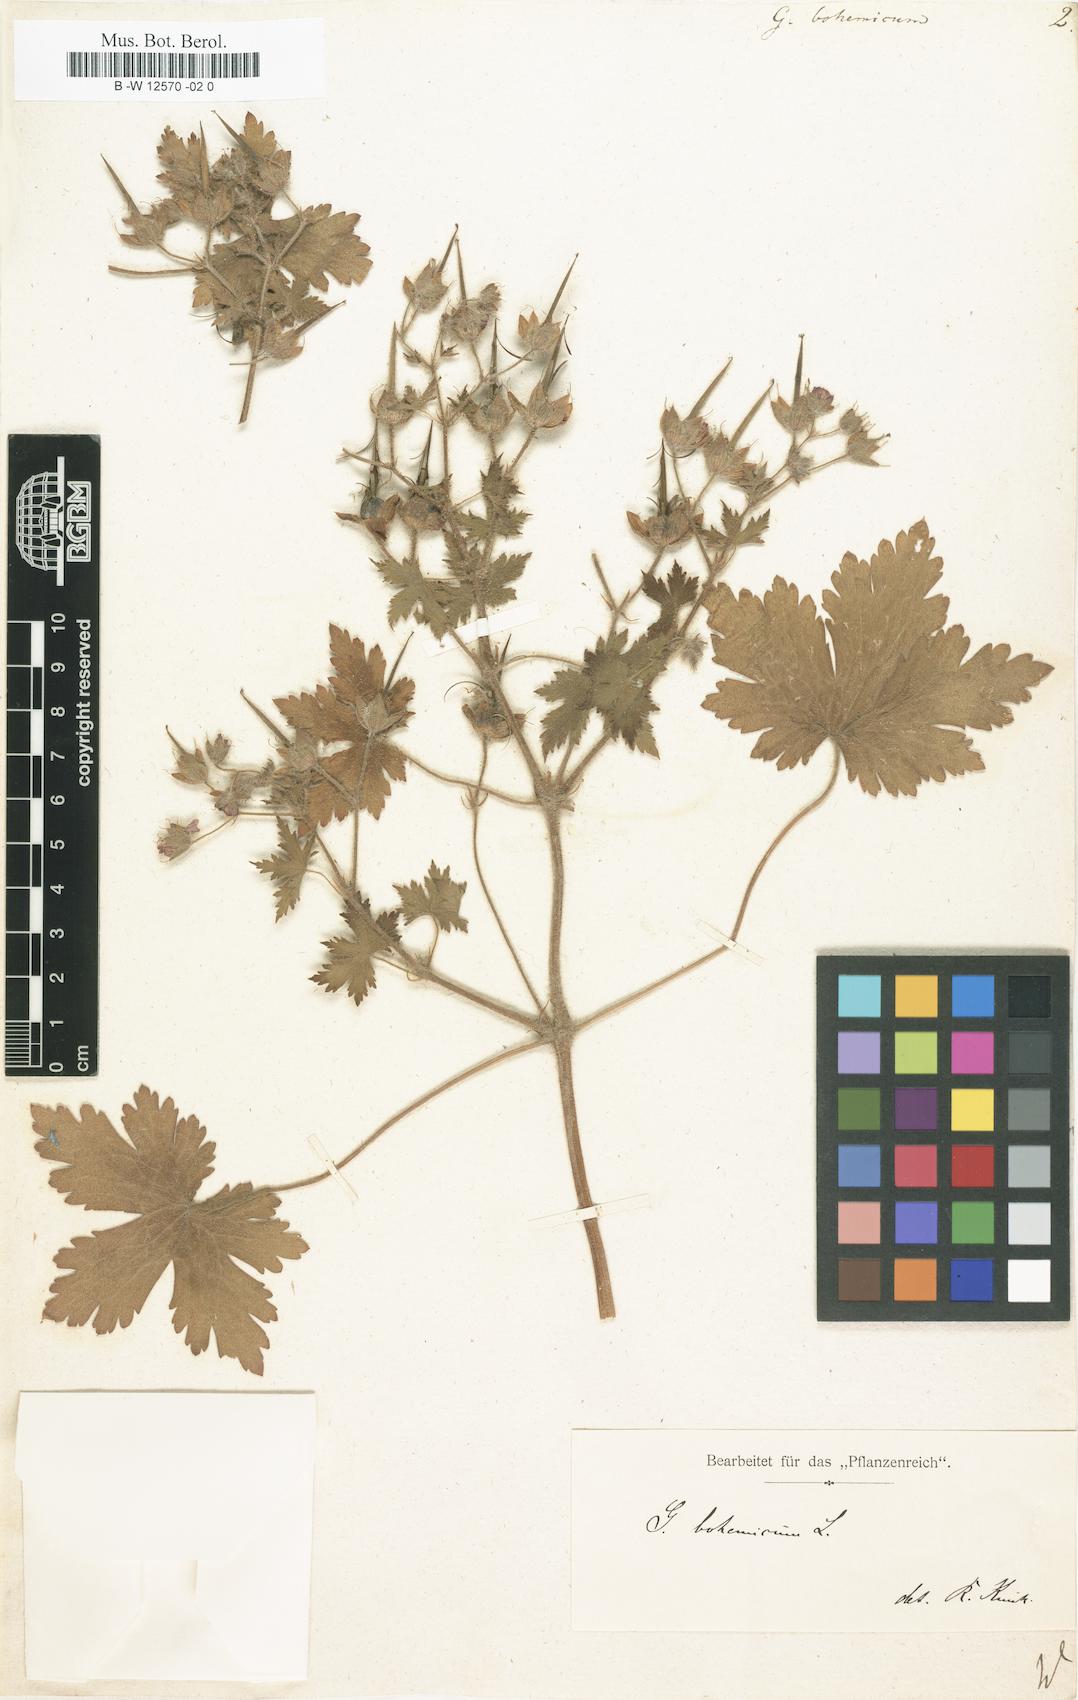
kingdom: Plantae
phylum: Tracheophyta
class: Magnoliopsida
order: Geraniales
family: Geraniaceae
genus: Geranium
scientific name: Geranium bohemicum
